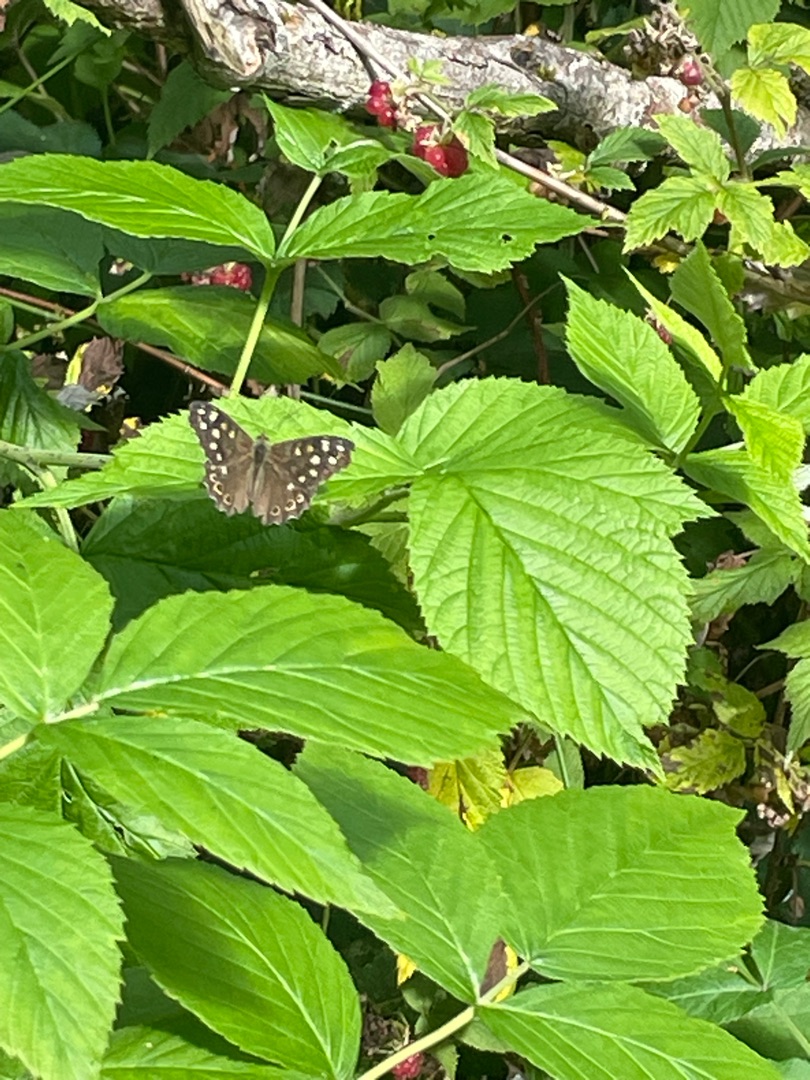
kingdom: Animalia
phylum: Arthropoda
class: Insecta
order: Lepidoptera
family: Nymphalidae
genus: Pararge
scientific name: Pararge aegeria
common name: Skovrandøje
